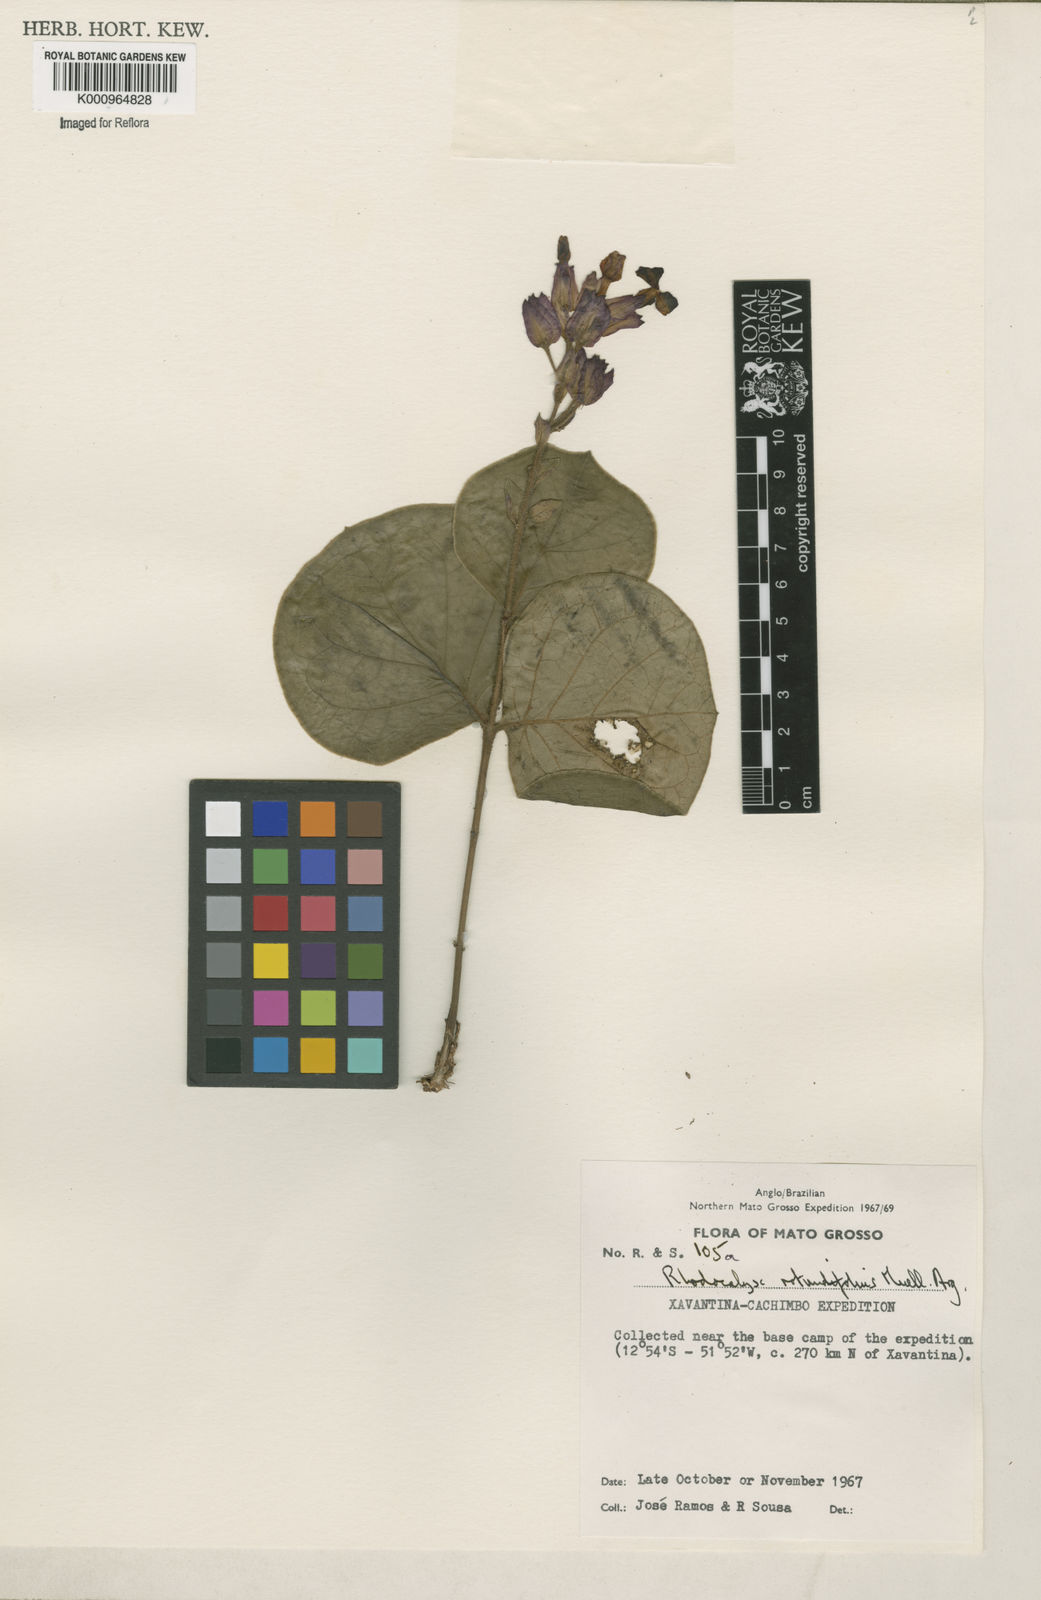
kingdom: Plantae
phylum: Tracheophyta
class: Magnoliopsida
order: Gentianales
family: Apocynaceae
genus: Rhodocalyx
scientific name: Rhodocalyx
